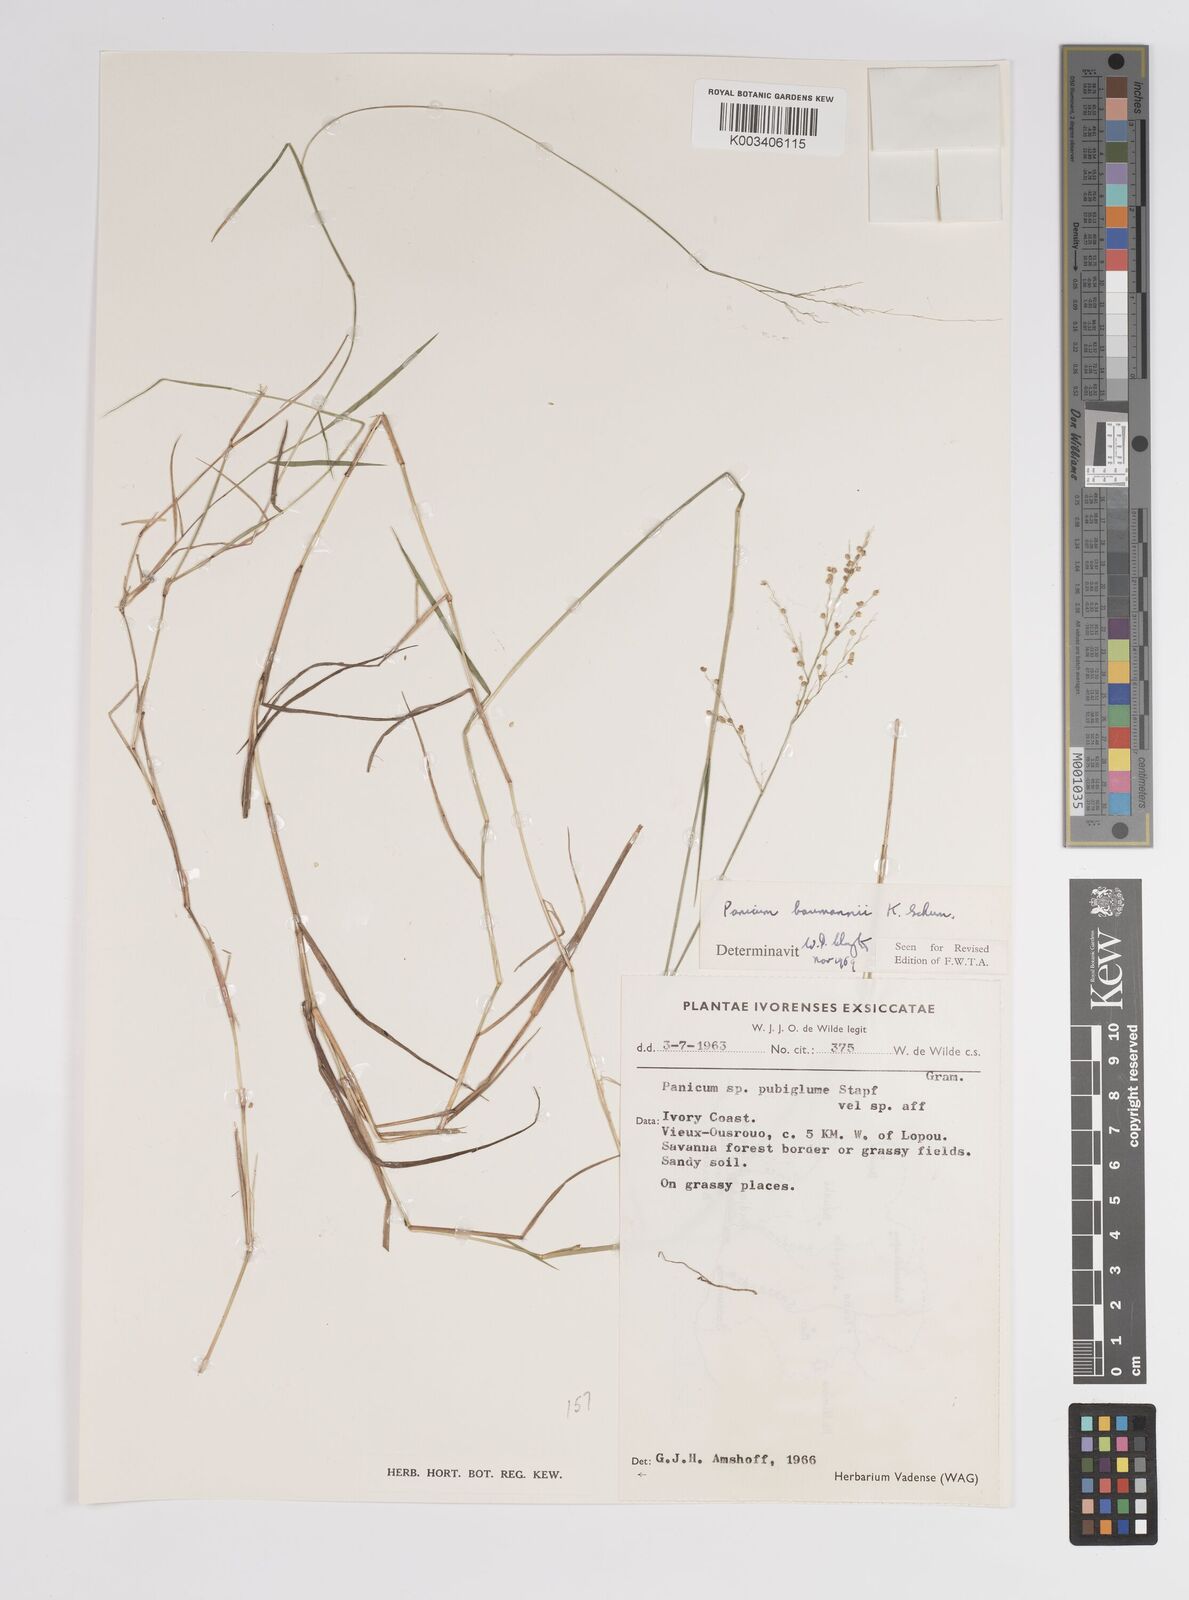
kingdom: Plantae
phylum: Tracheophyta
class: Liliopsida
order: Poales
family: Poaceae
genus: Trichanthecium
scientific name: Trichanthecium nervatum
